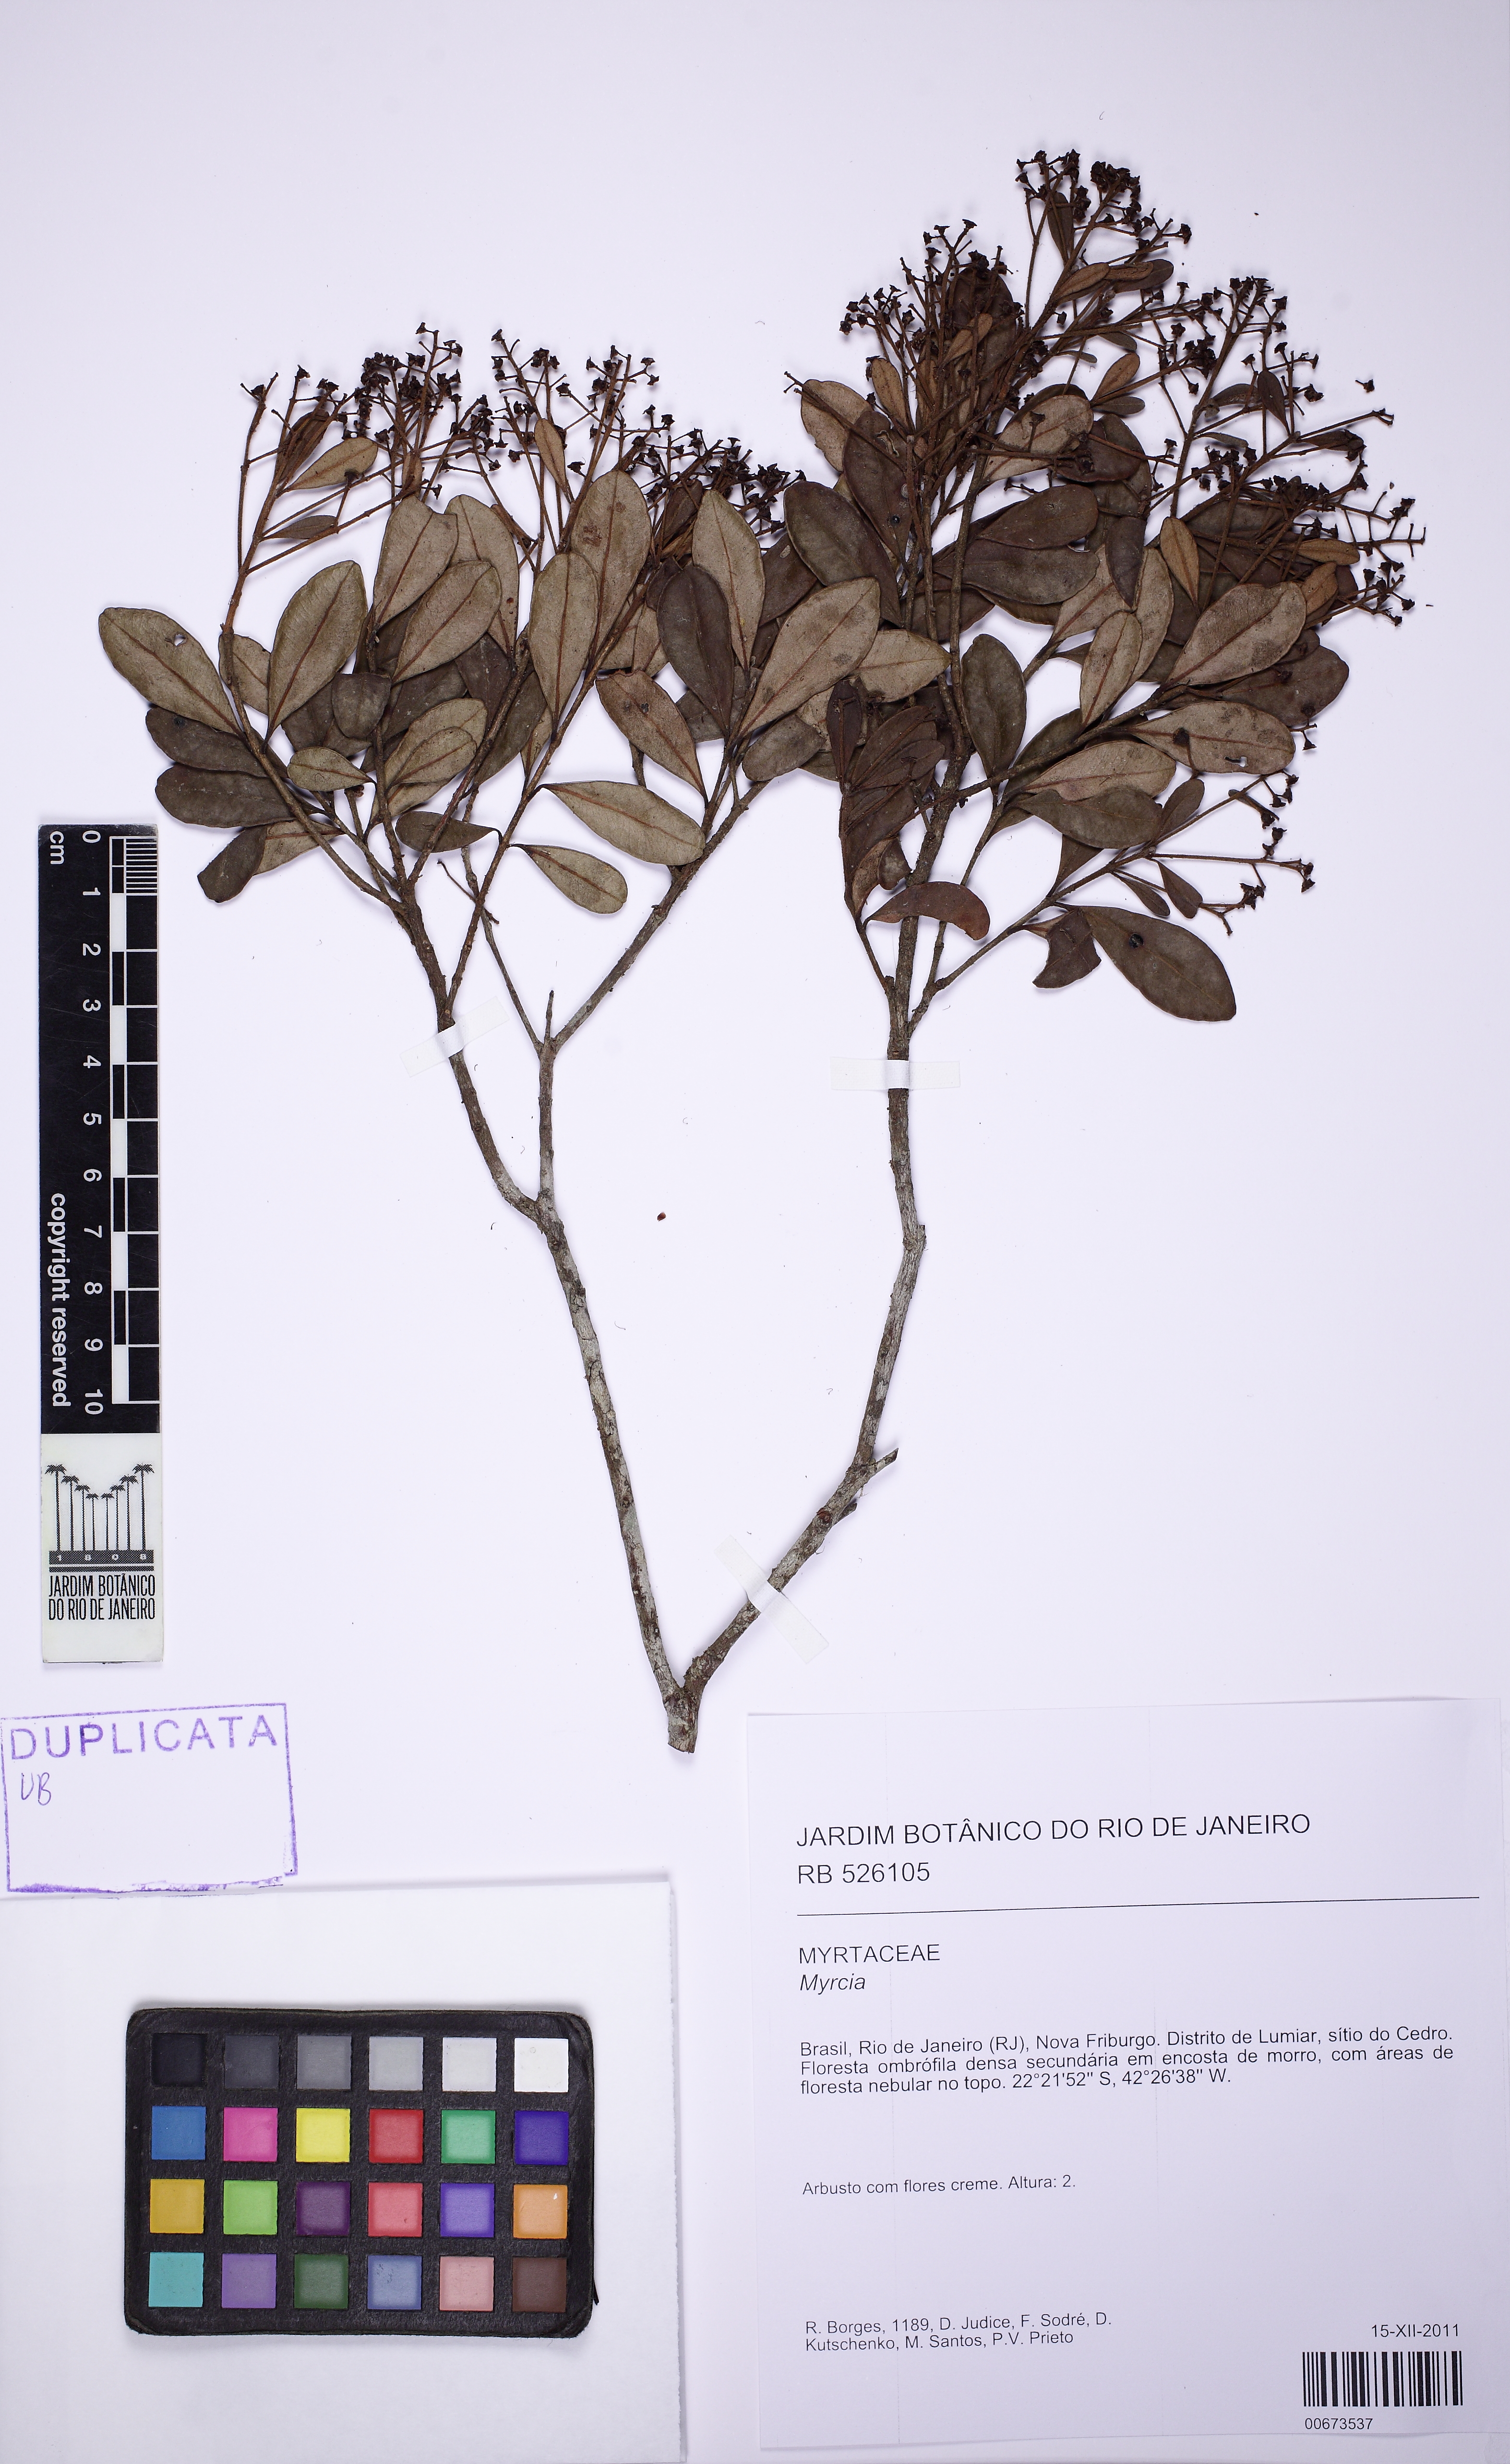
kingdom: Plantae
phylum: Tracheophyta
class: Magnoliopsida
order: Myrtales
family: Myrtaceae
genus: Myrcia
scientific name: Myrcia subalpestris
